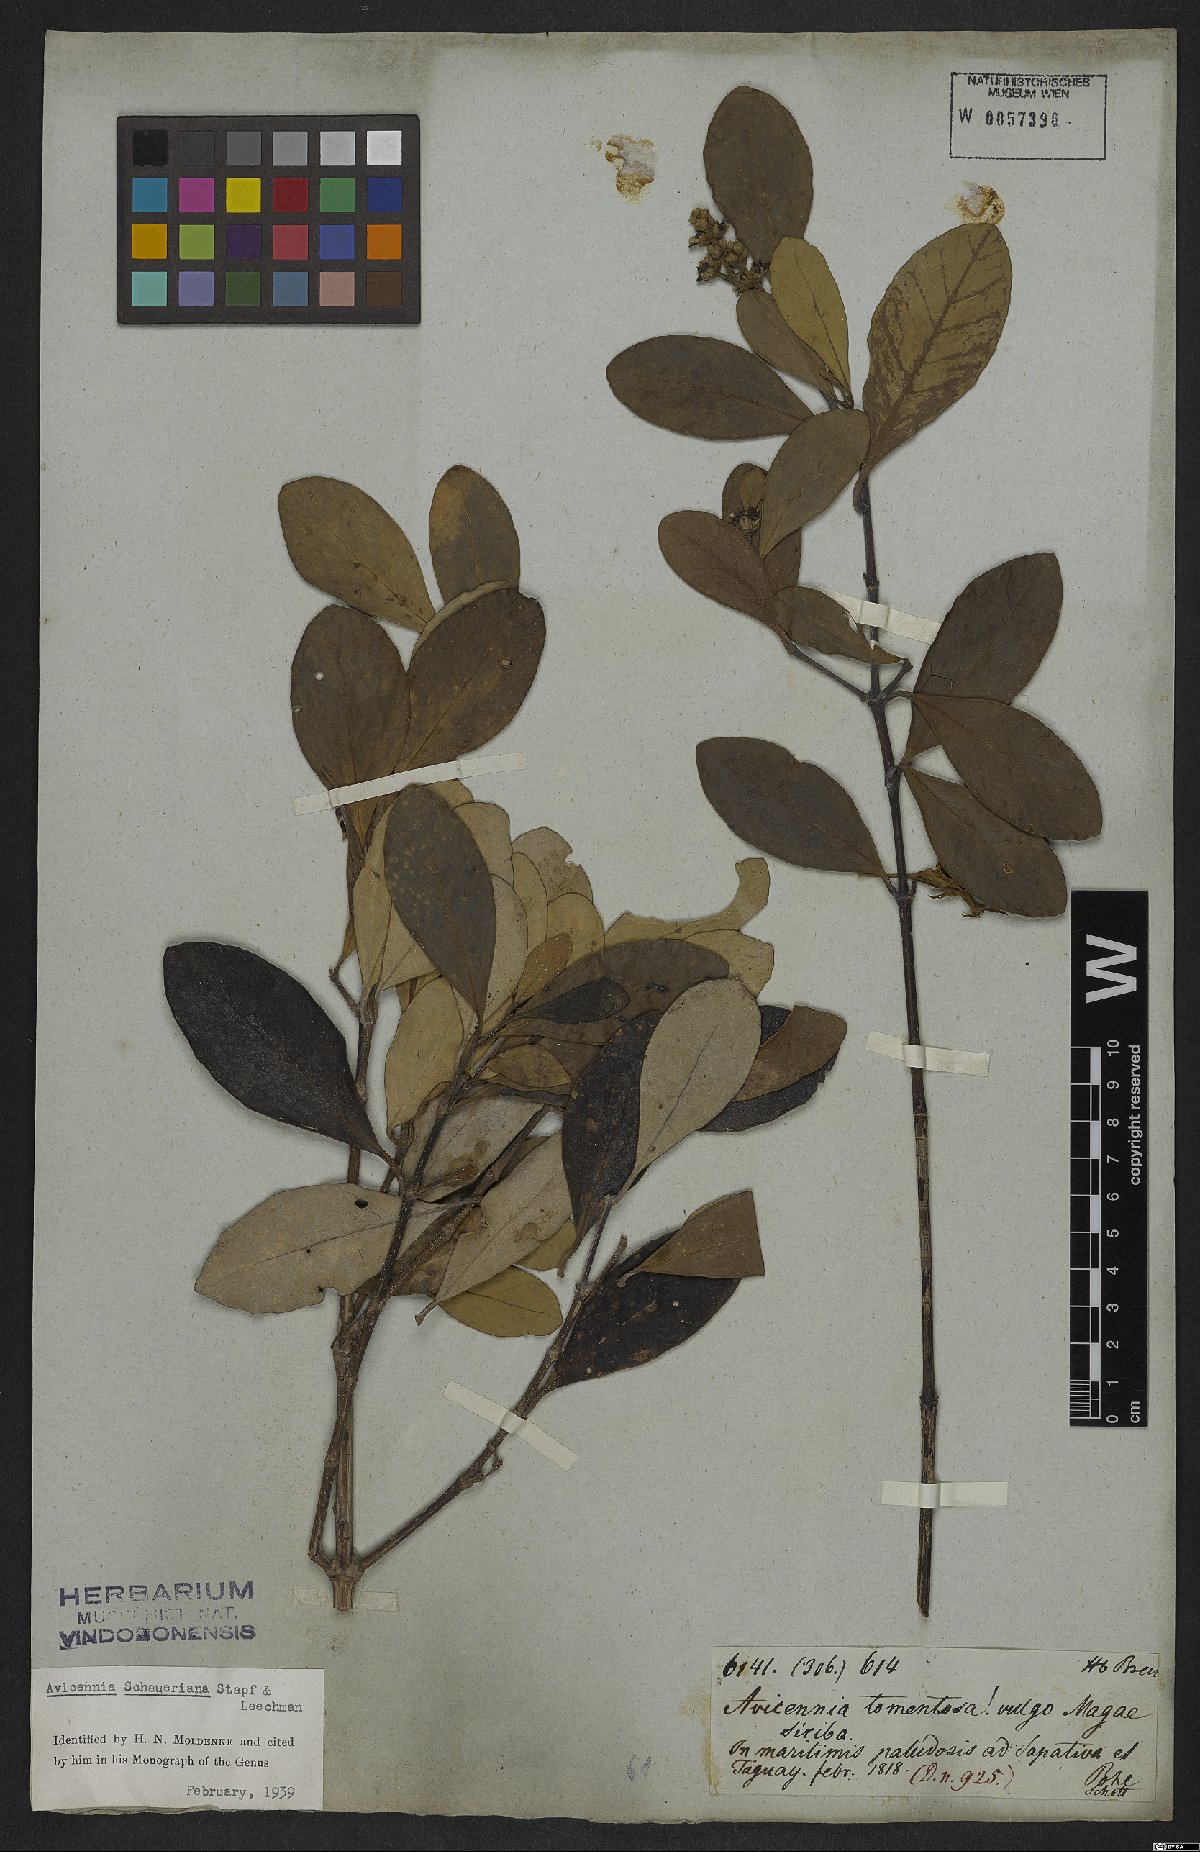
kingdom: Plantae
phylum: Tracheophyta
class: Magnoliopsida
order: Lamiales
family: Acanthaceae
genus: Avicennia
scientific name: Avicennia schaueriana
